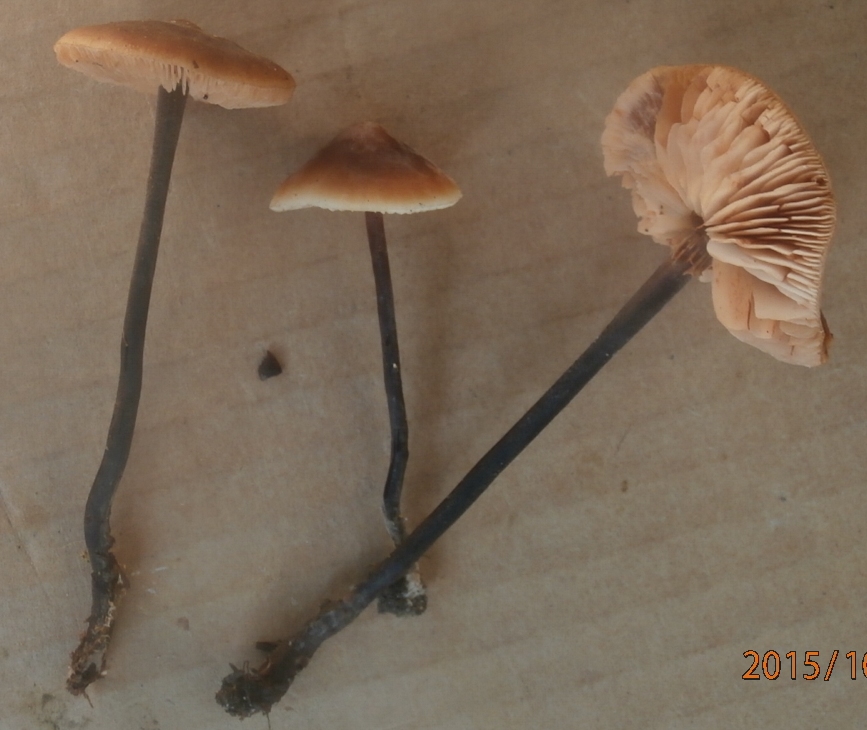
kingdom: Fungi
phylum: Basidiomycota
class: Agaricomycetes
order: Agaricales
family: Macrocystidiaceae
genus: Macrocystidia
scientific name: Macrocystidia cucumis
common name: agurkehat
